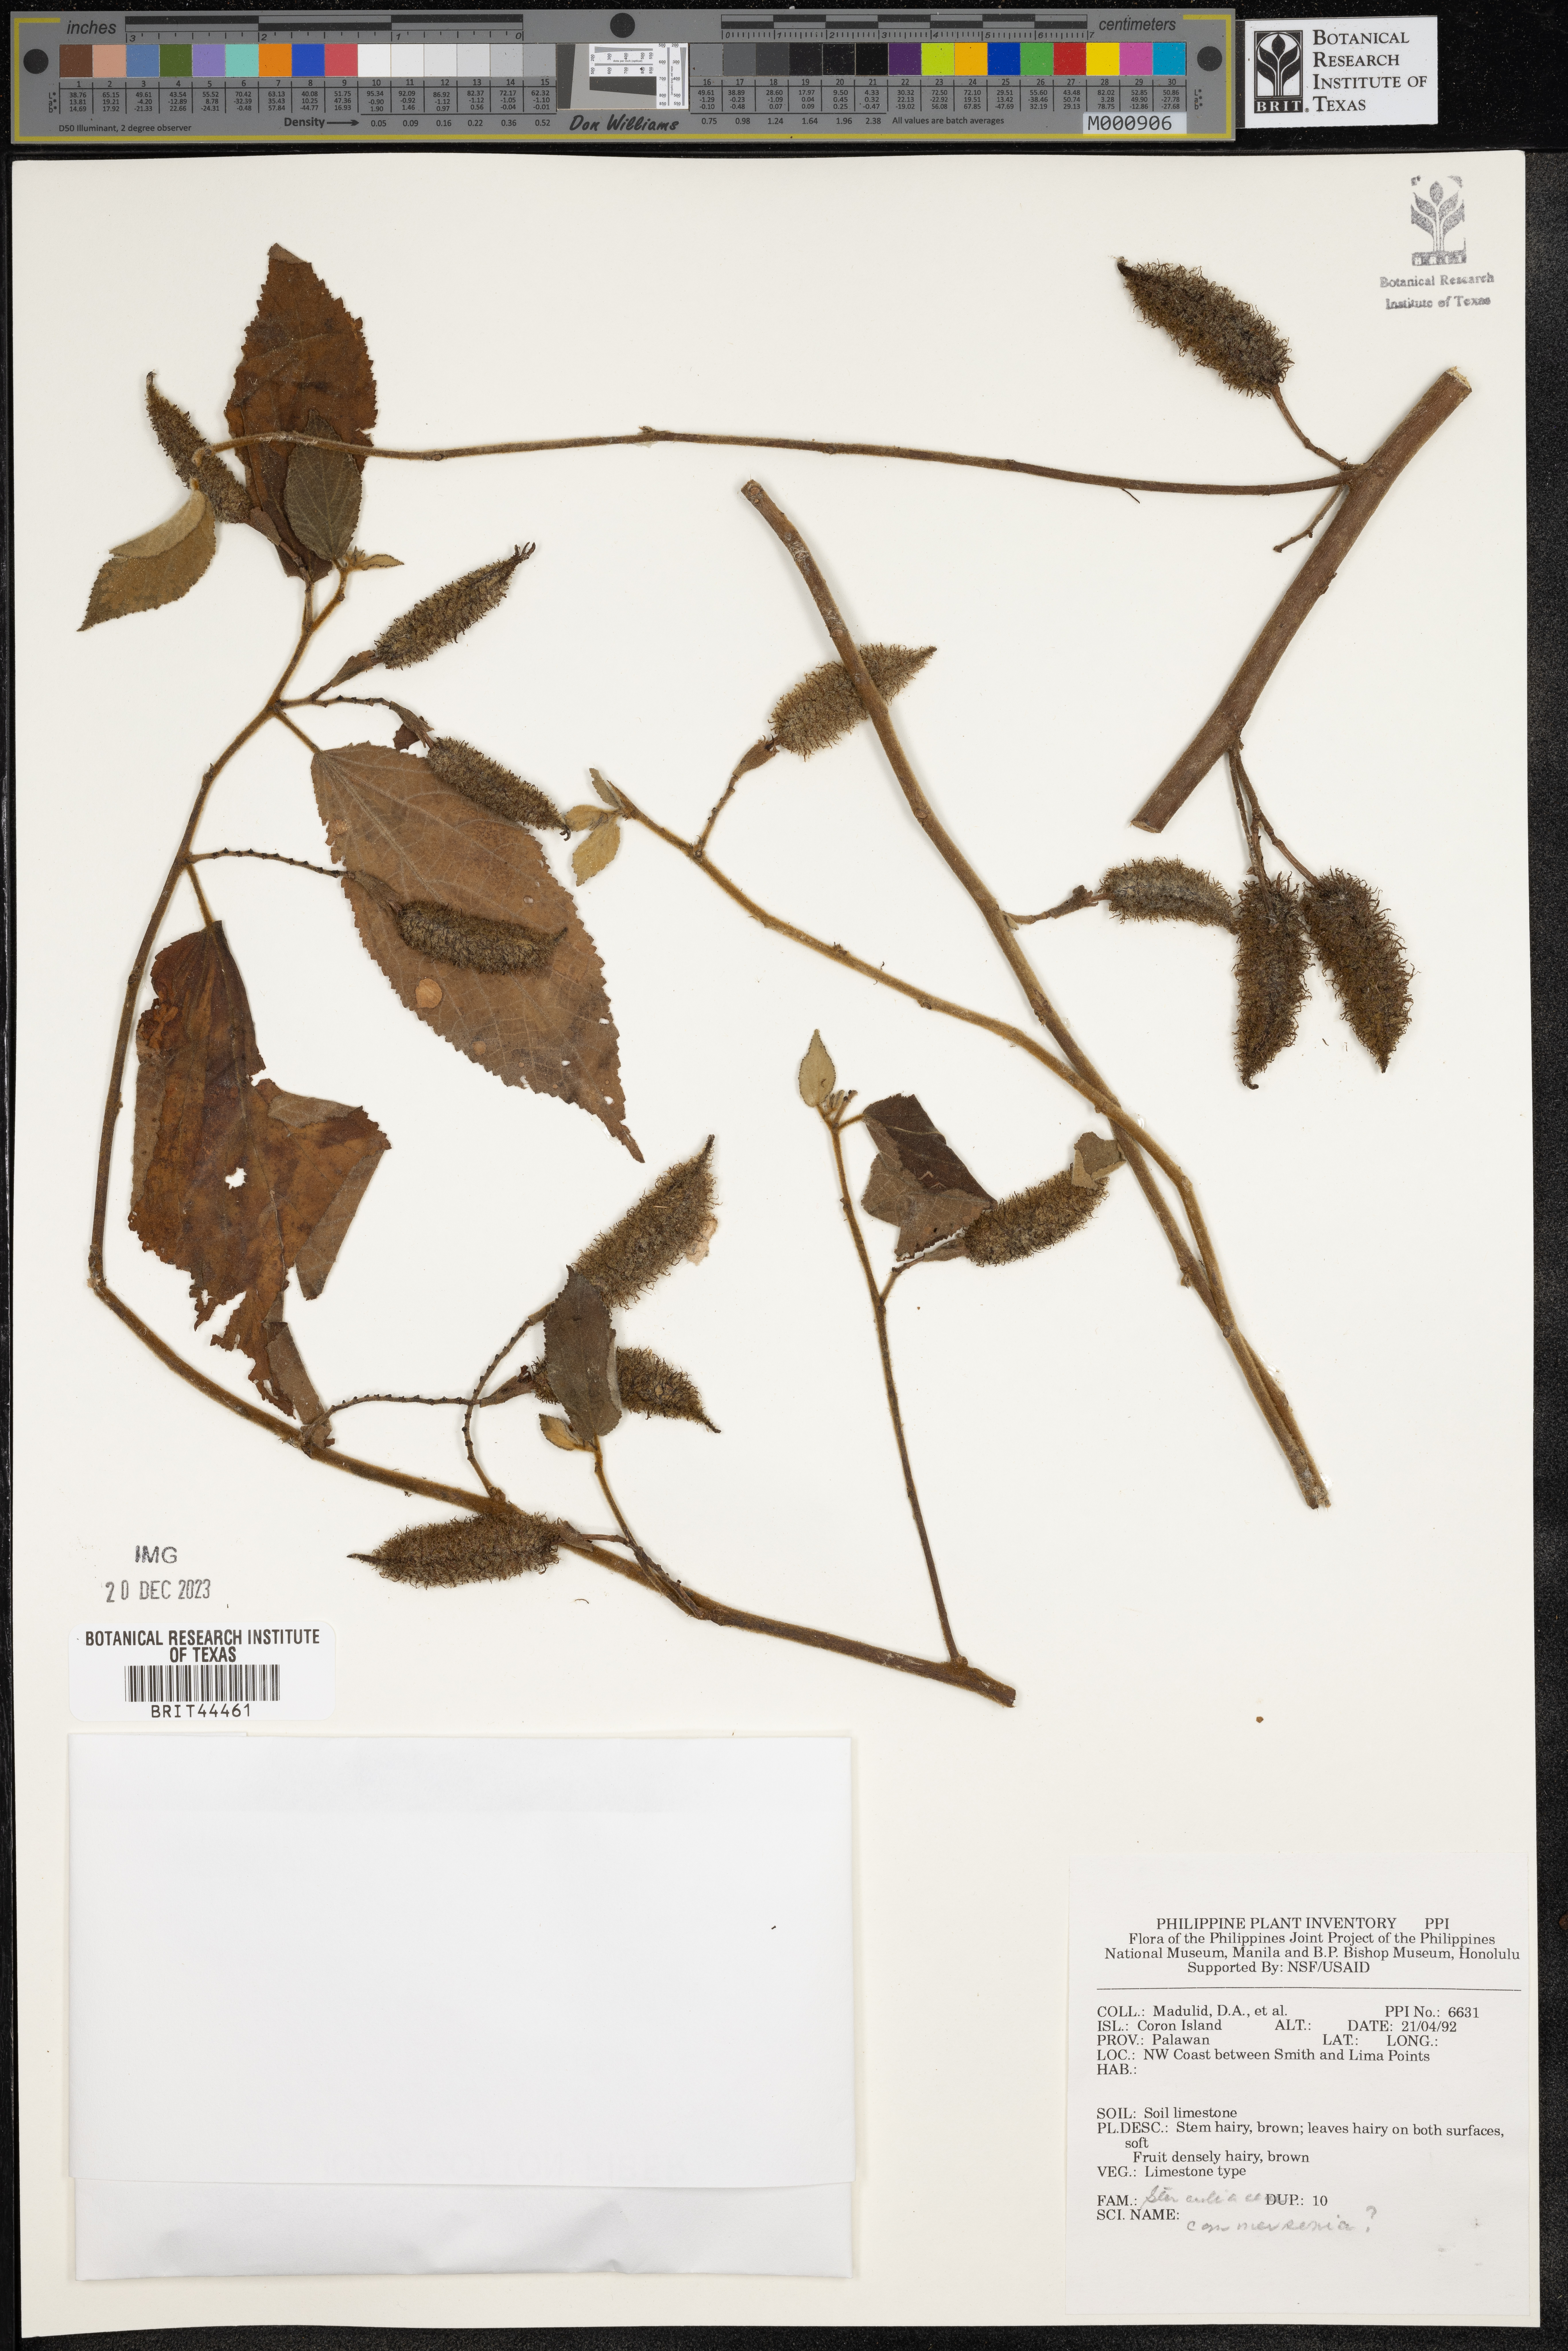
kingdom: Plantae
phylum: Tracheophyta
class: Magnoliopsida
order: Malvales
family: Malvaceae
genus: Commersonia
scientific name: Commersonia
